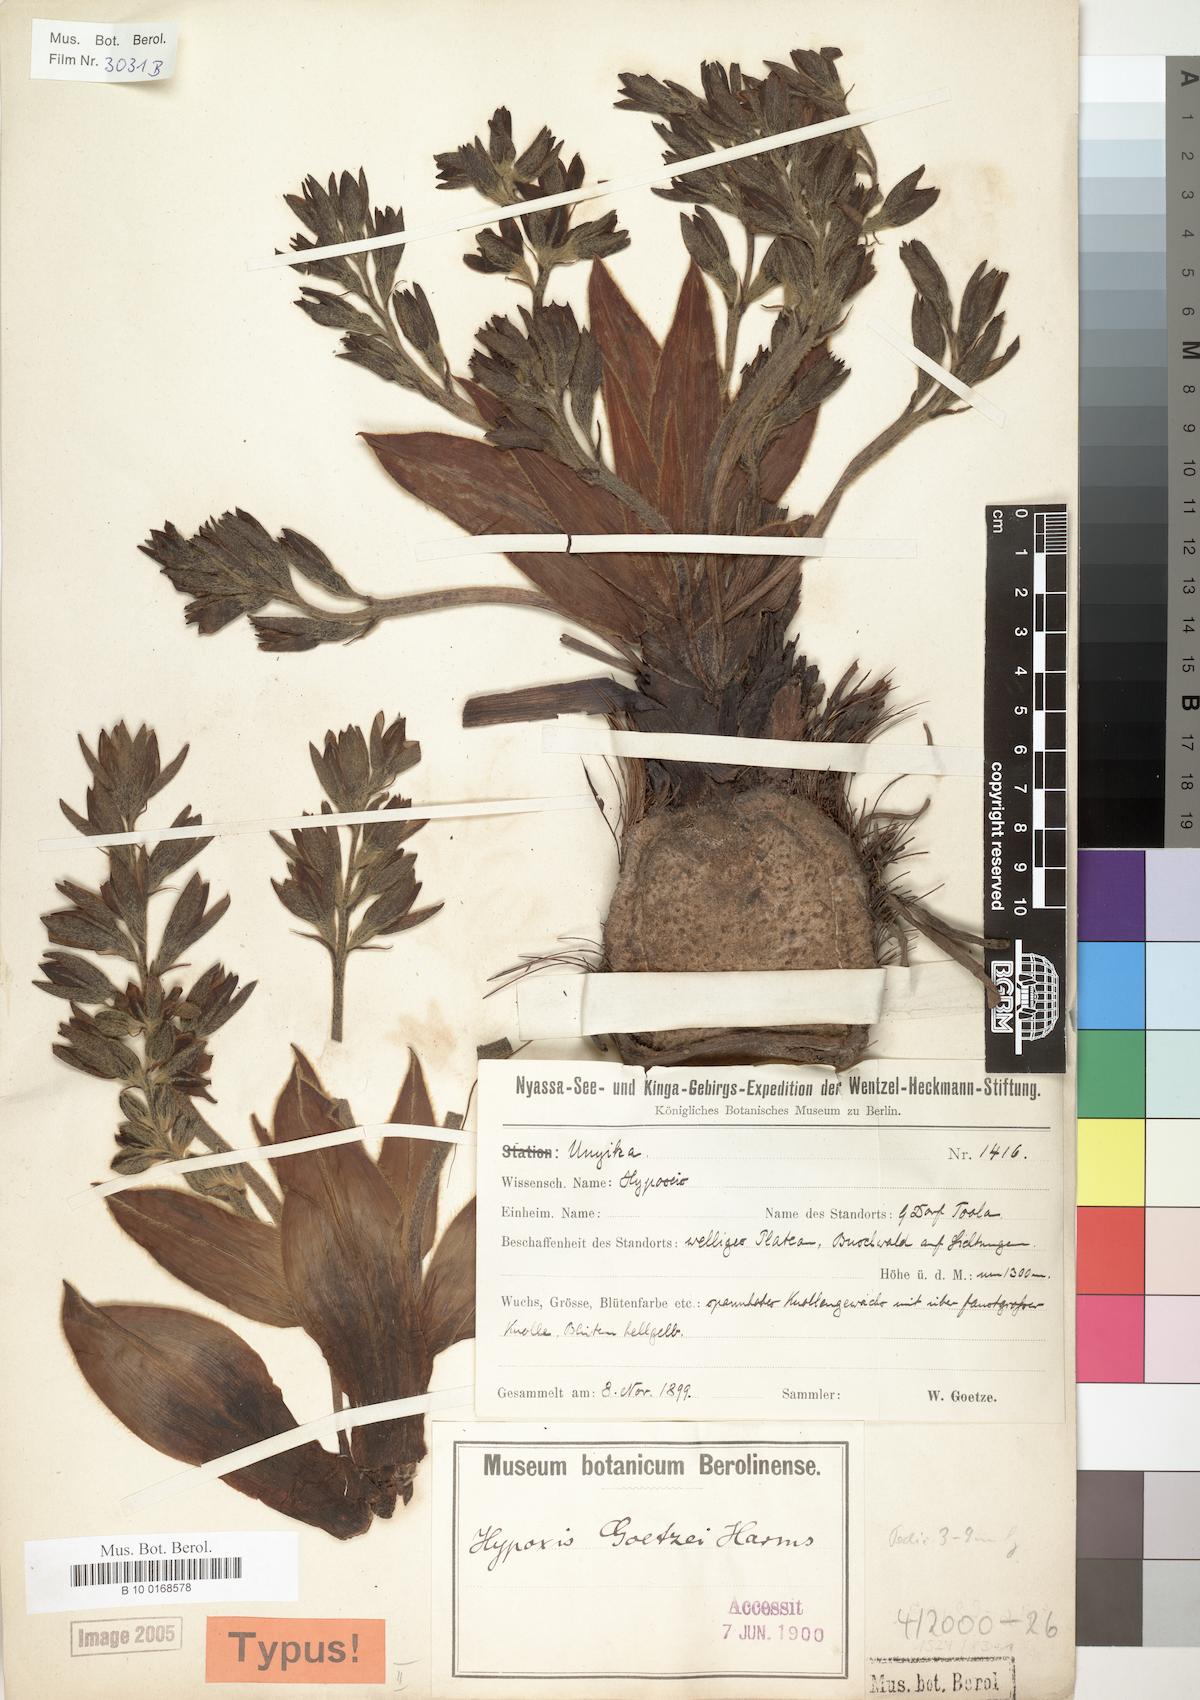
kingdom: Plantae
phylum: Tracheophyta
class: Liliopsida
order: Asparagales
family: Hypoxidaceae
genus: Hypoxis
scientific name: Hypoxis goetzei
